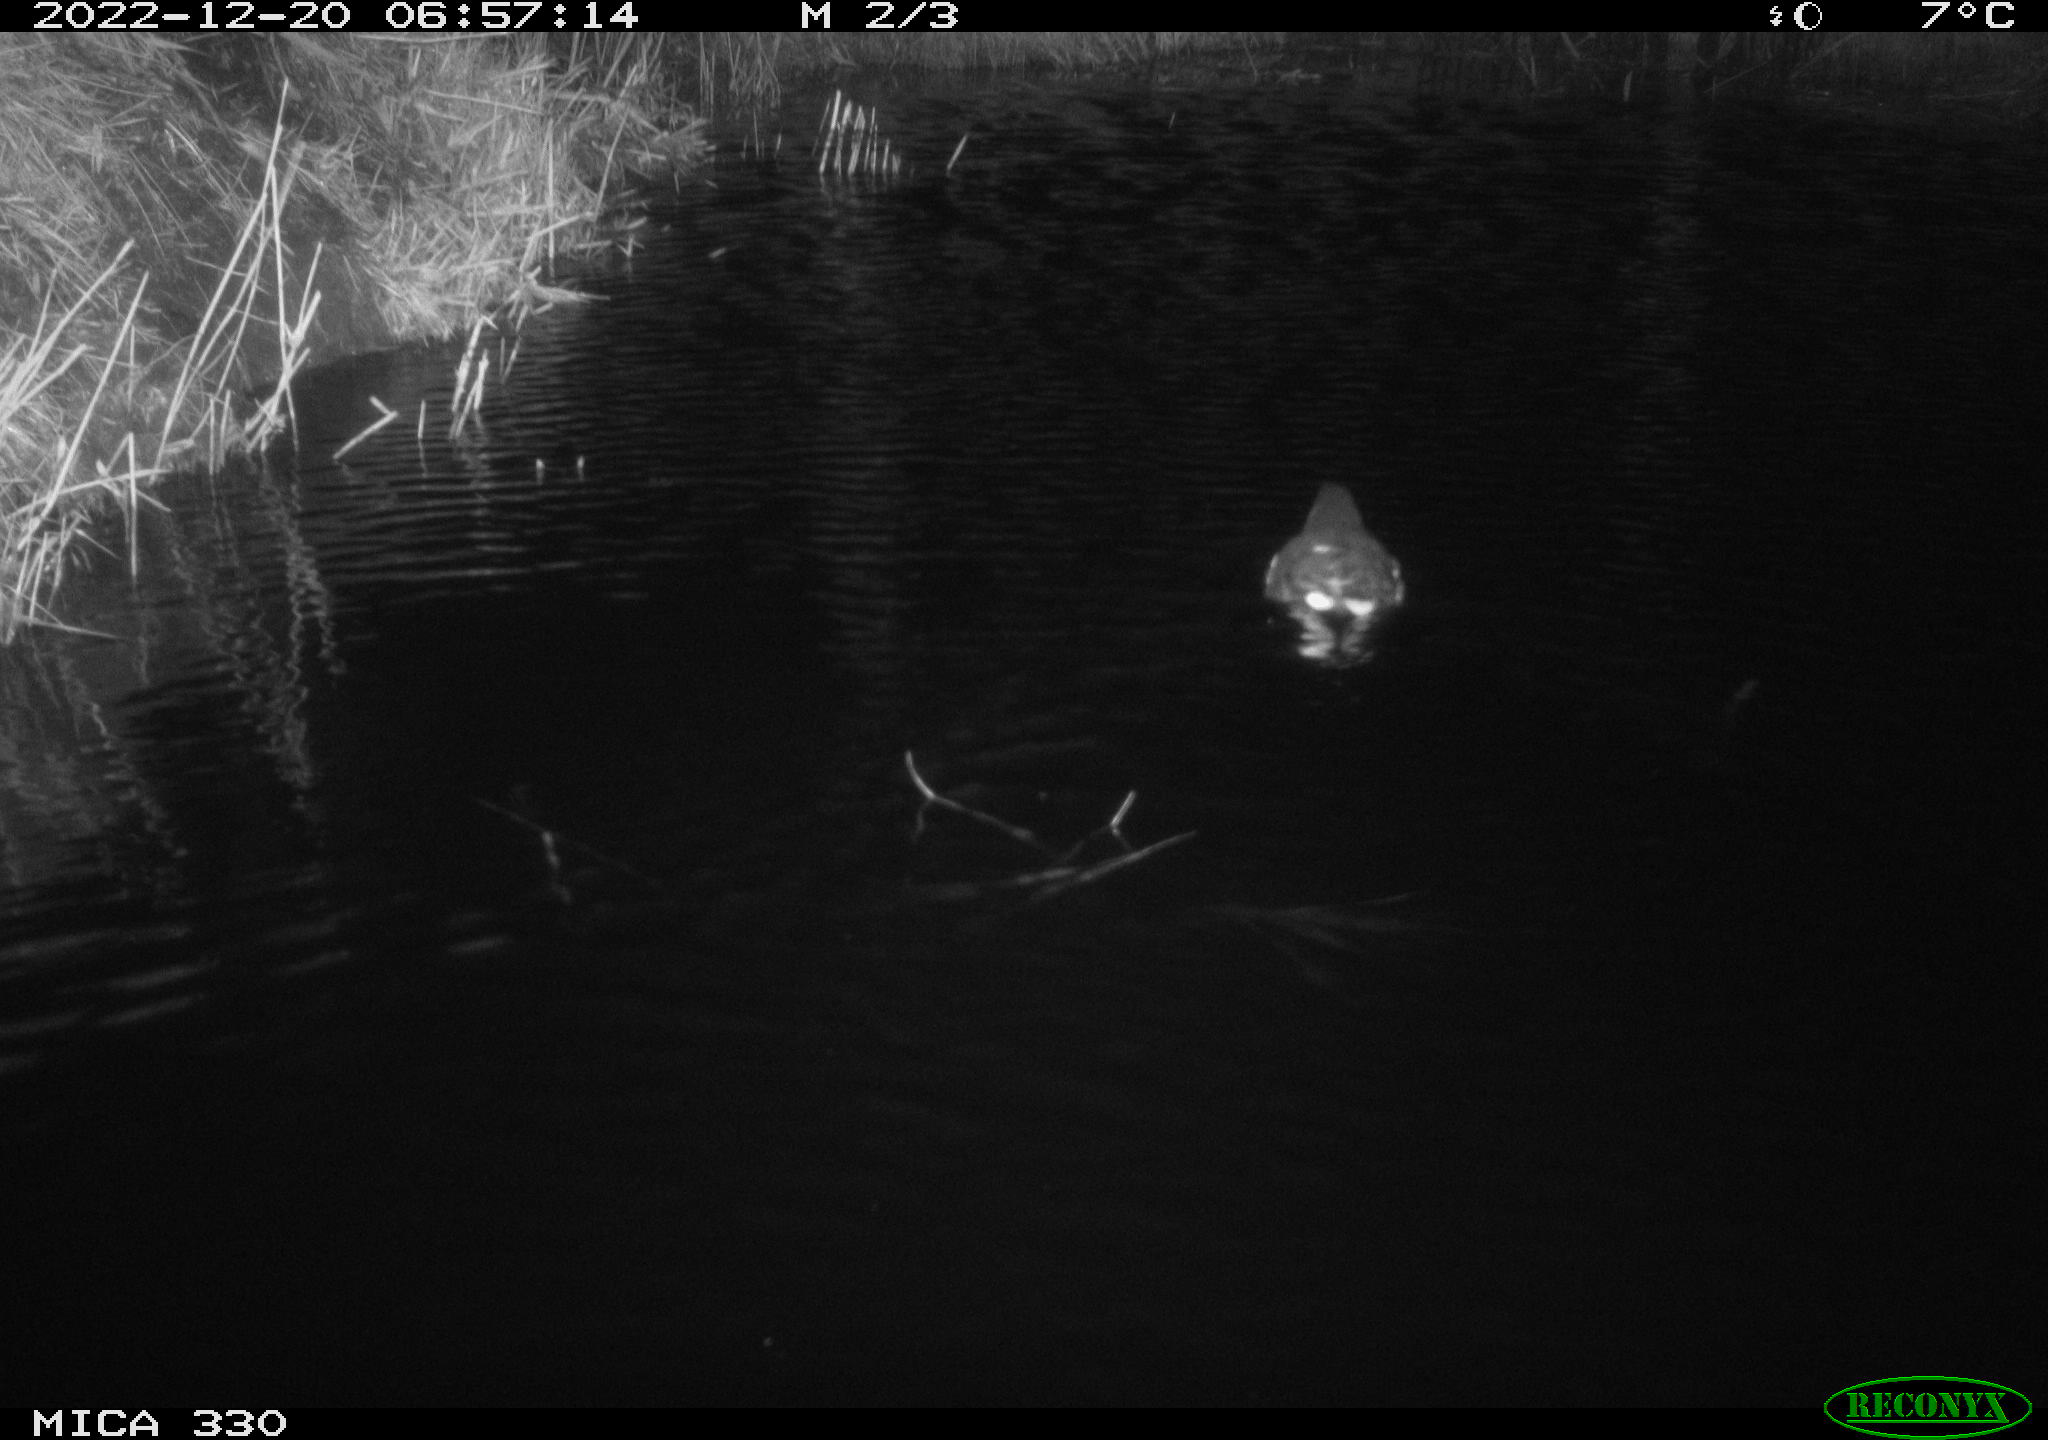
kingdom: Animalia
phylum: Chordata
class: Aves
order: Gruiformes
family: Rallidae
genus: Gallinula
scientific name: Gallinula chloropus
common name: Common moorhen
